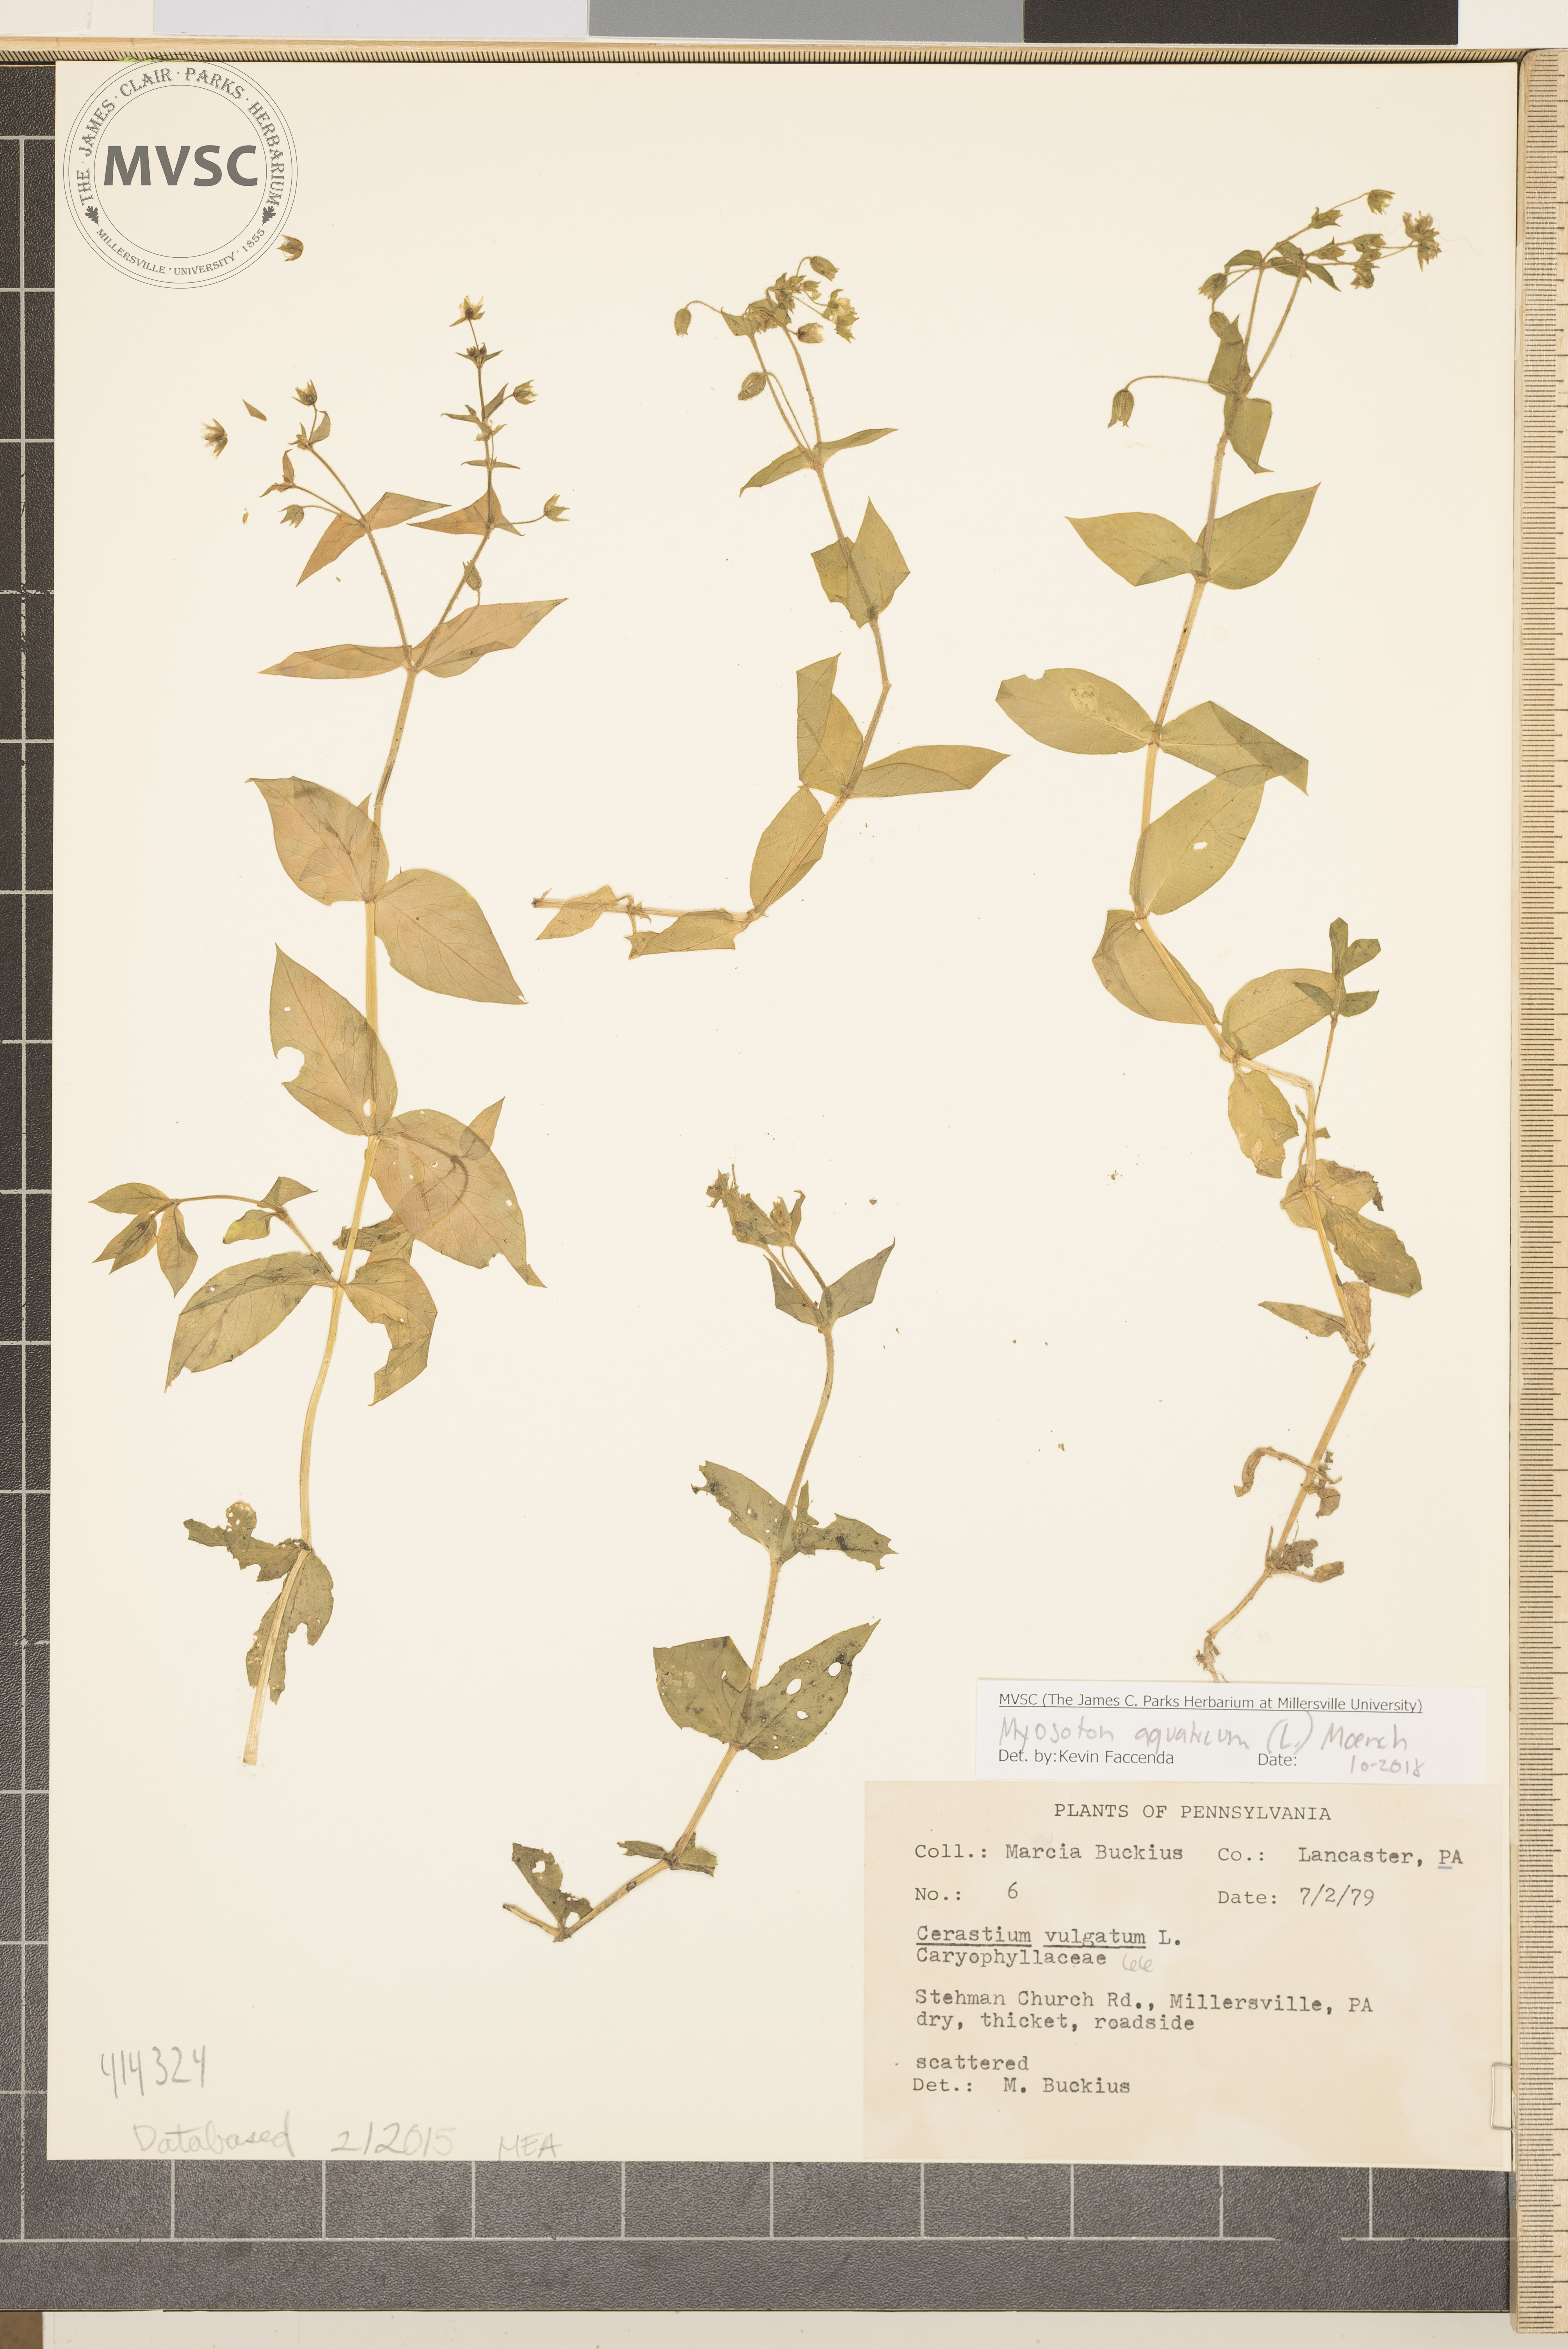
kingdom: Plantae
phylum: Tracheophyta
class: Magnoliopsida
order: Caryophyllales
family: Caryophyllaceae
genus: Stellaria
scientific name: Stellaria aquatica
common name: Water chickweed
